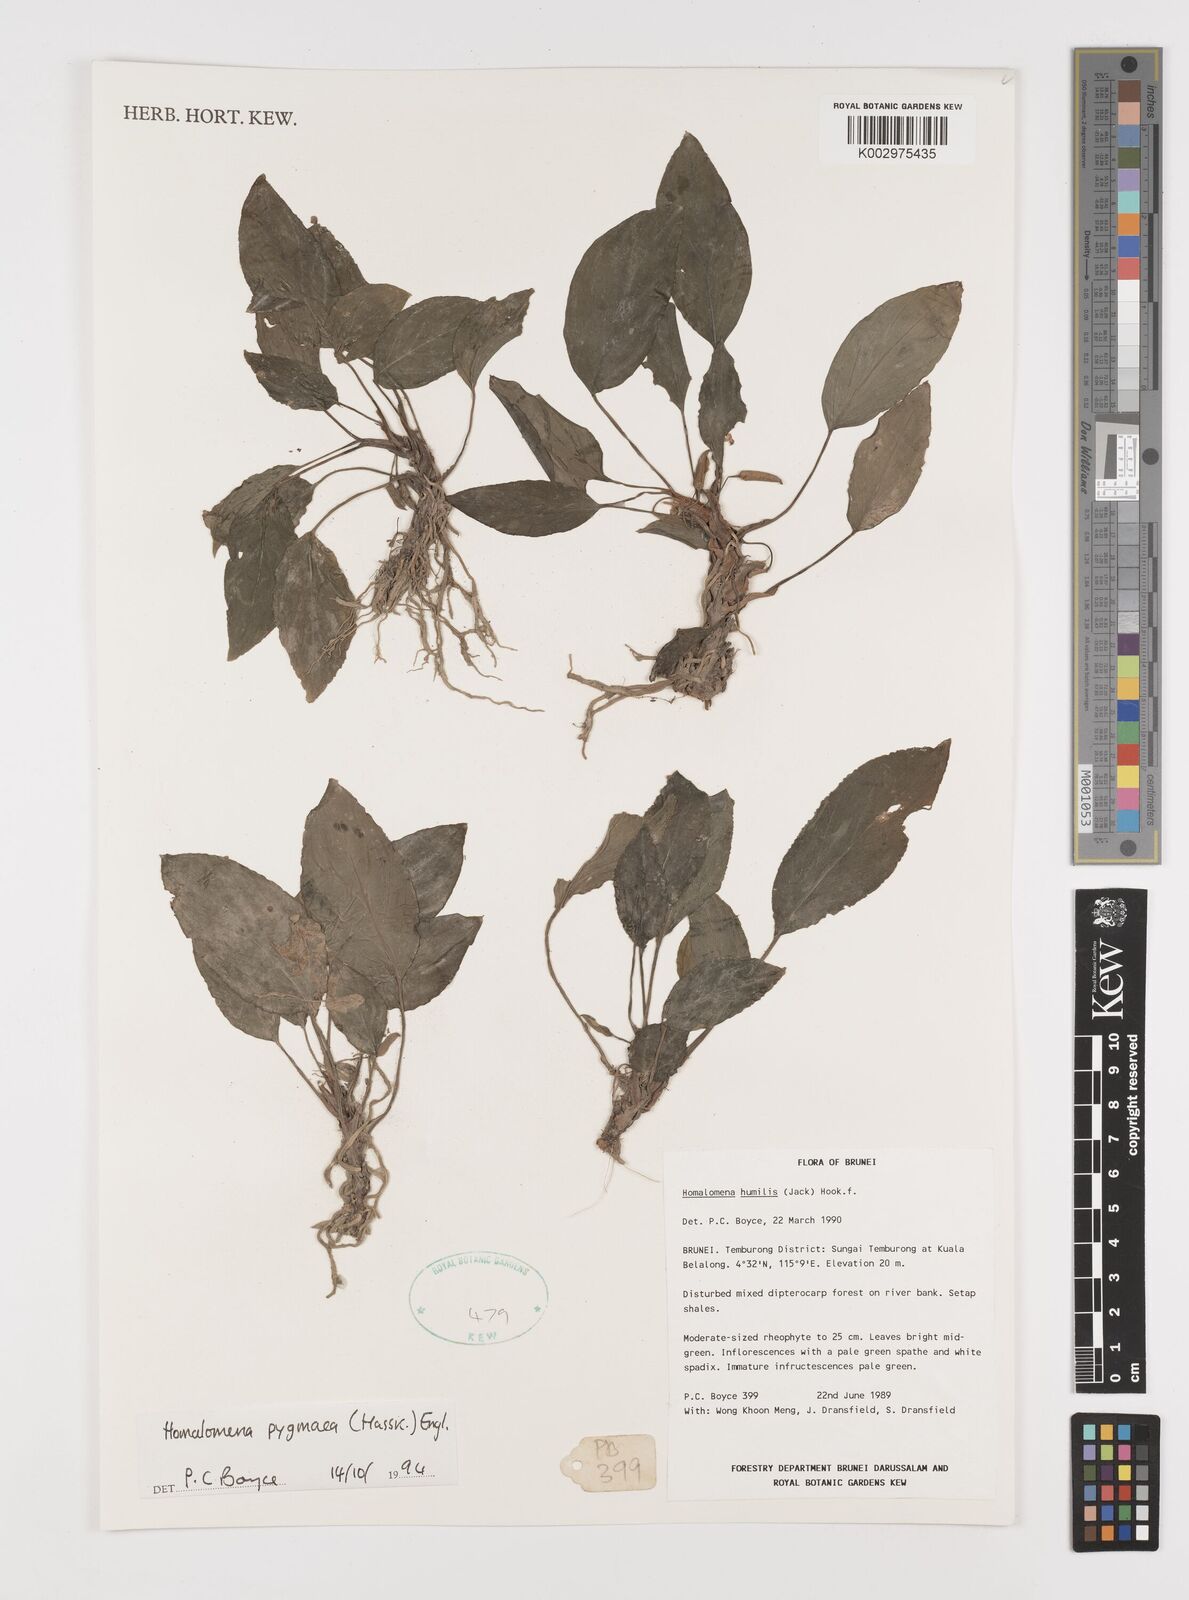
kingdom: Plantae
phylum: Tracheophyta
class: Liliopsida
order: Alismatales
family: Araceae
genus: Homalomena
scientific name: Homalomena humilis
